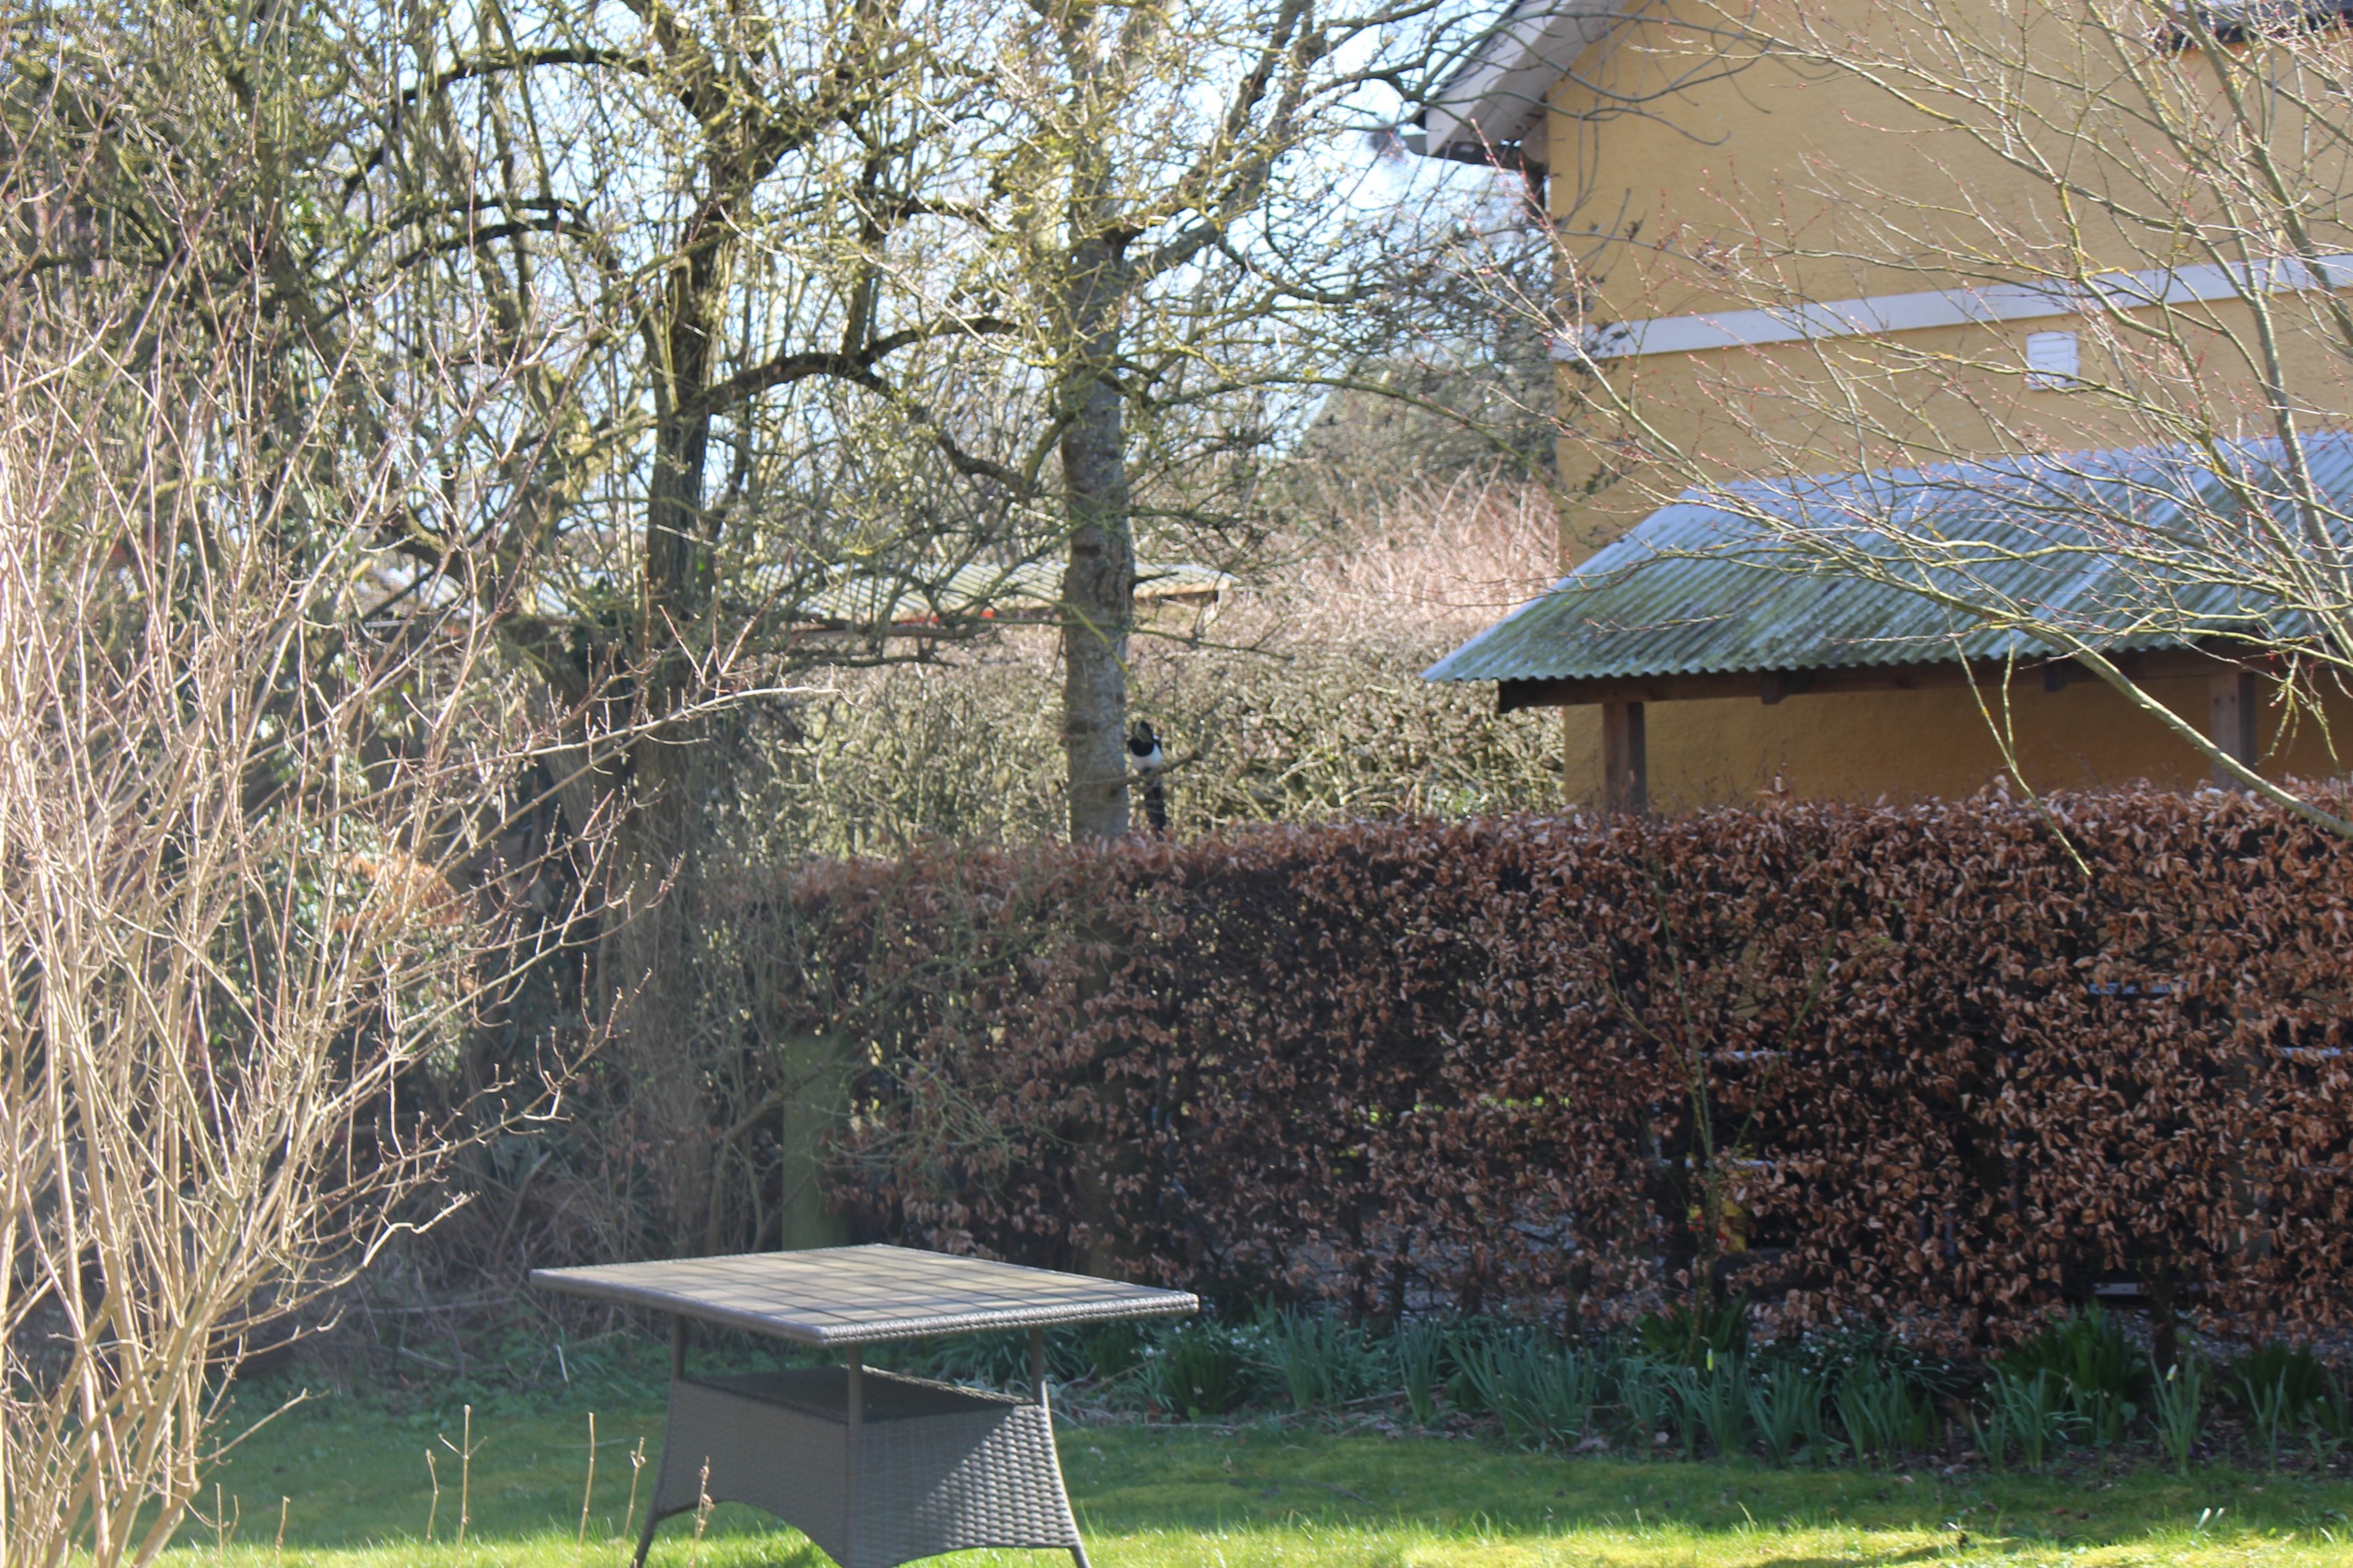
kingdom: Animalia
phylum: Chordata
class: Aves
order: Passeriformes
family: Corvidae
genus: Pica
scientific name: Pica pica
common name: Husskade
